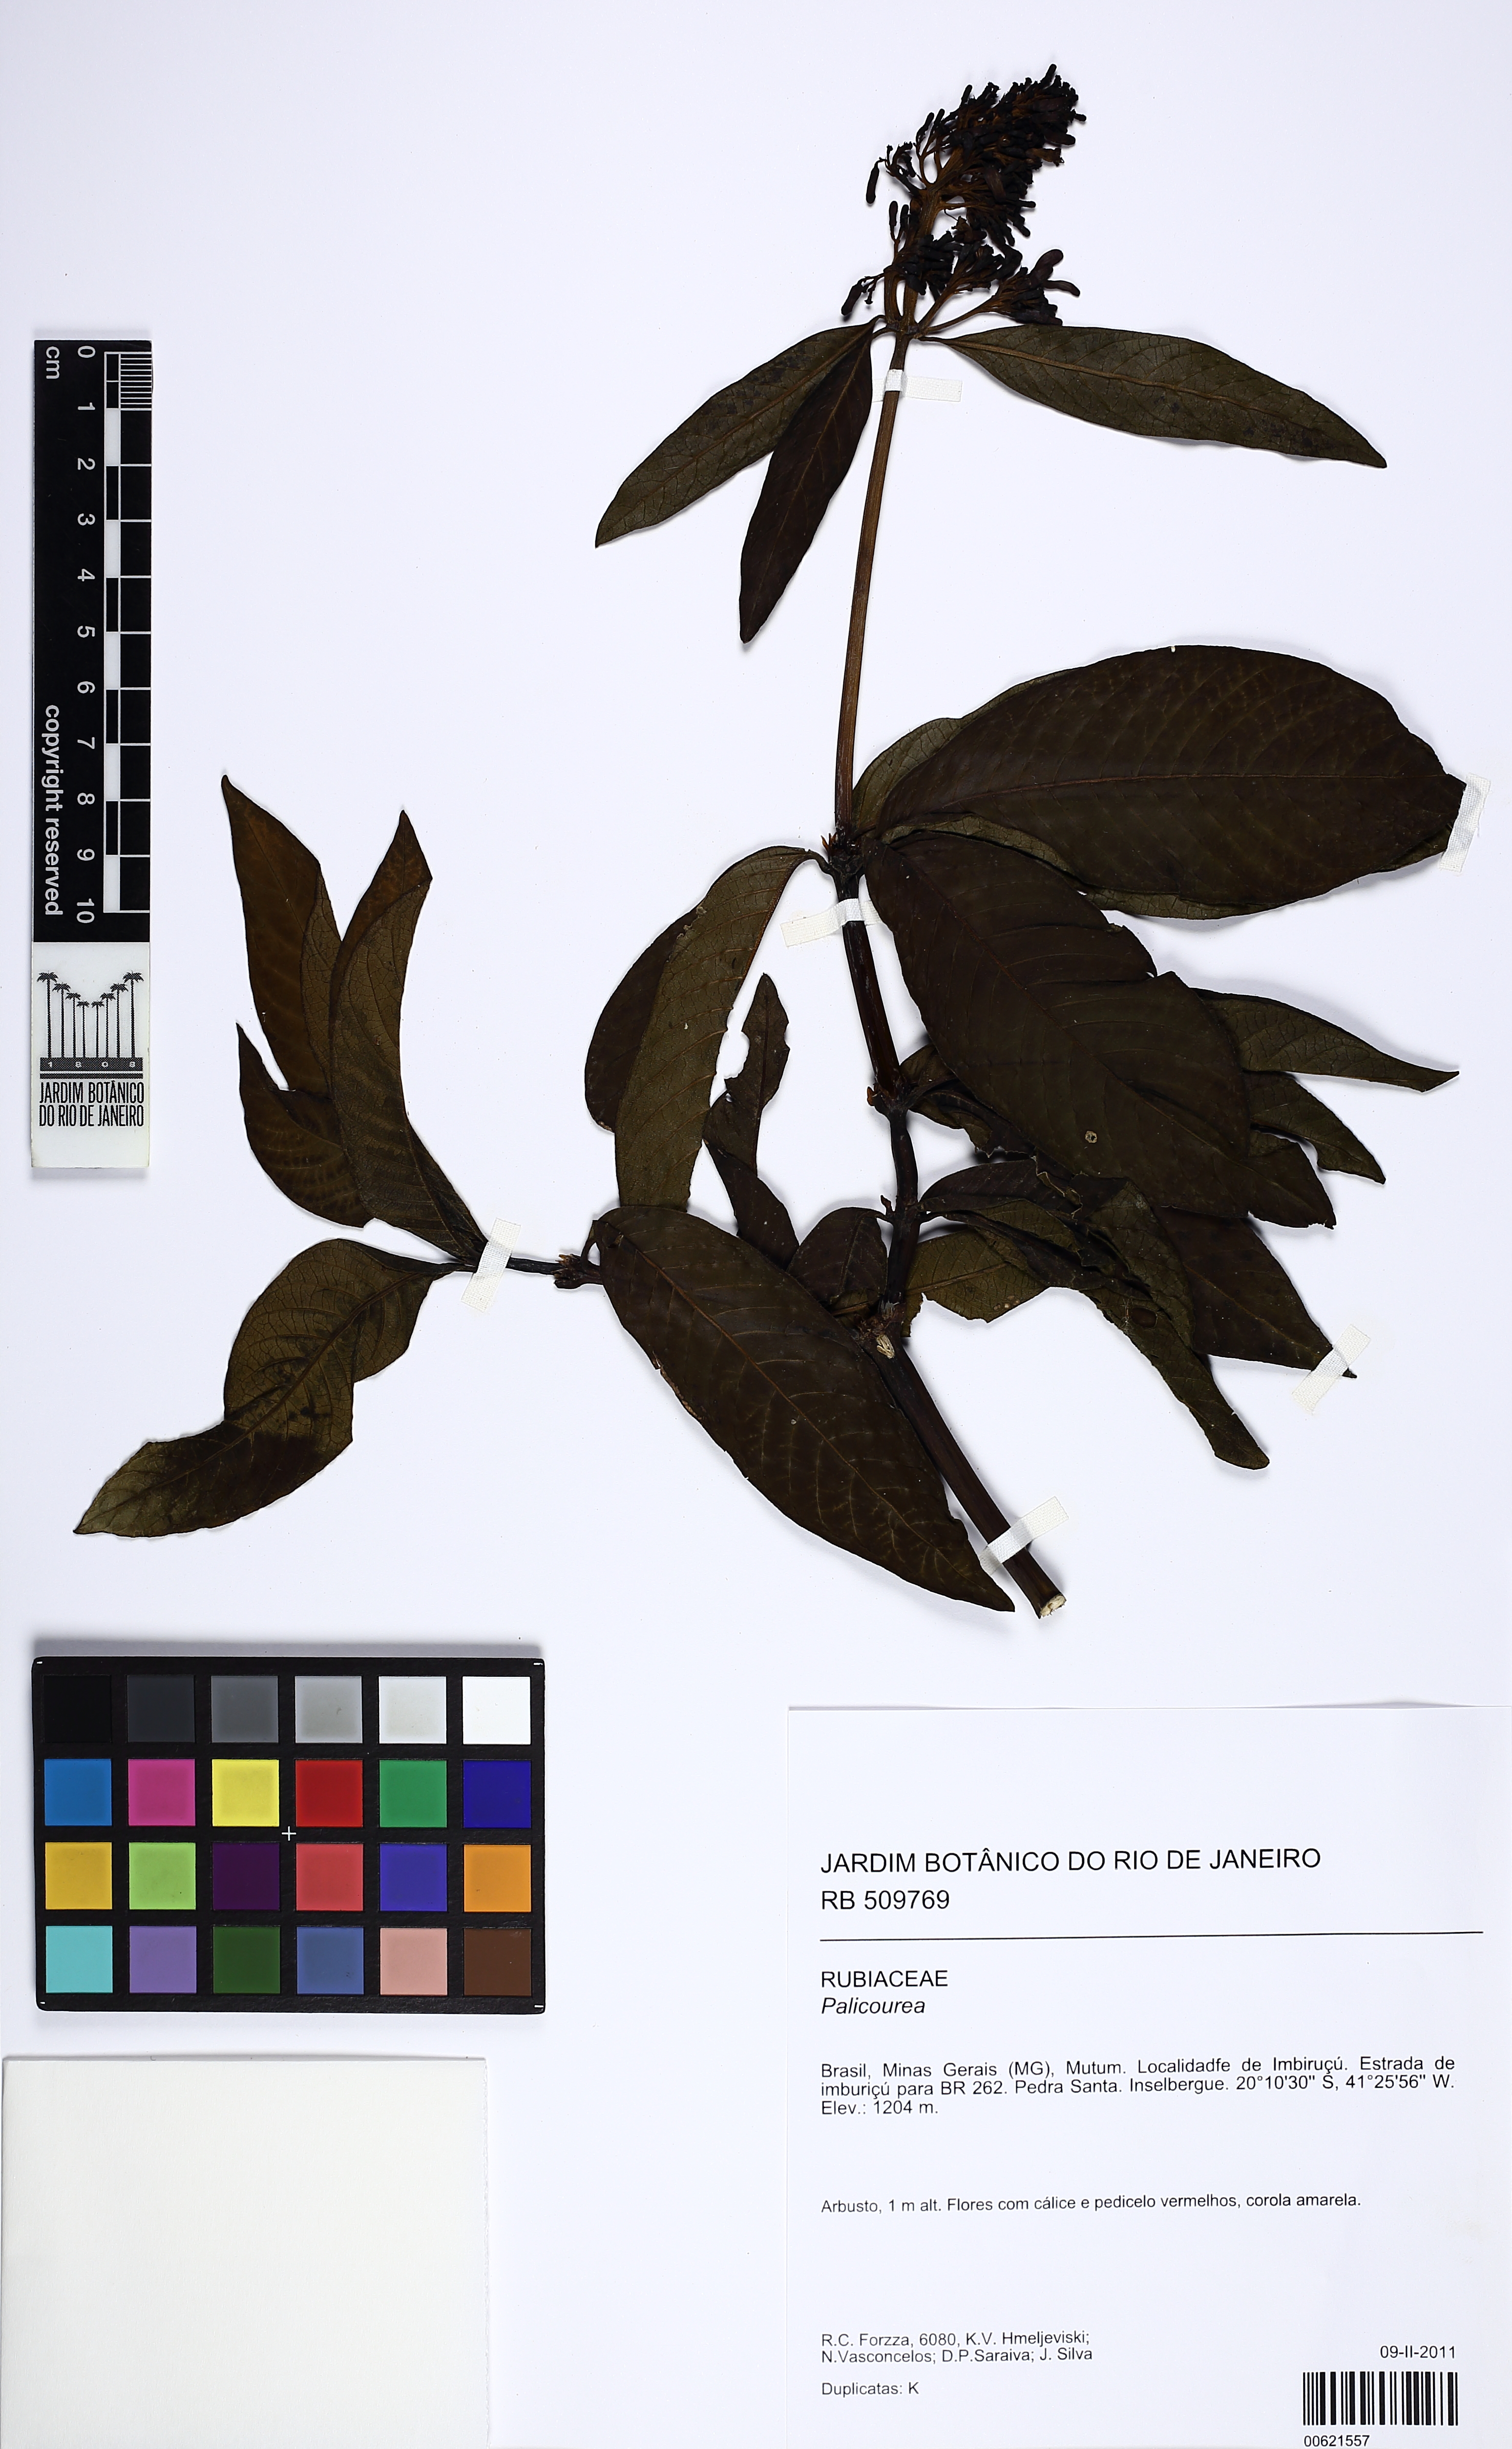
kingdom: Plantae
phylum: Tracheophyta
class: Magnoliopsida
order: Gentianales
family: Rubiaceae
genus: Palicourea
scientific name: Palicourea tetraphylla
